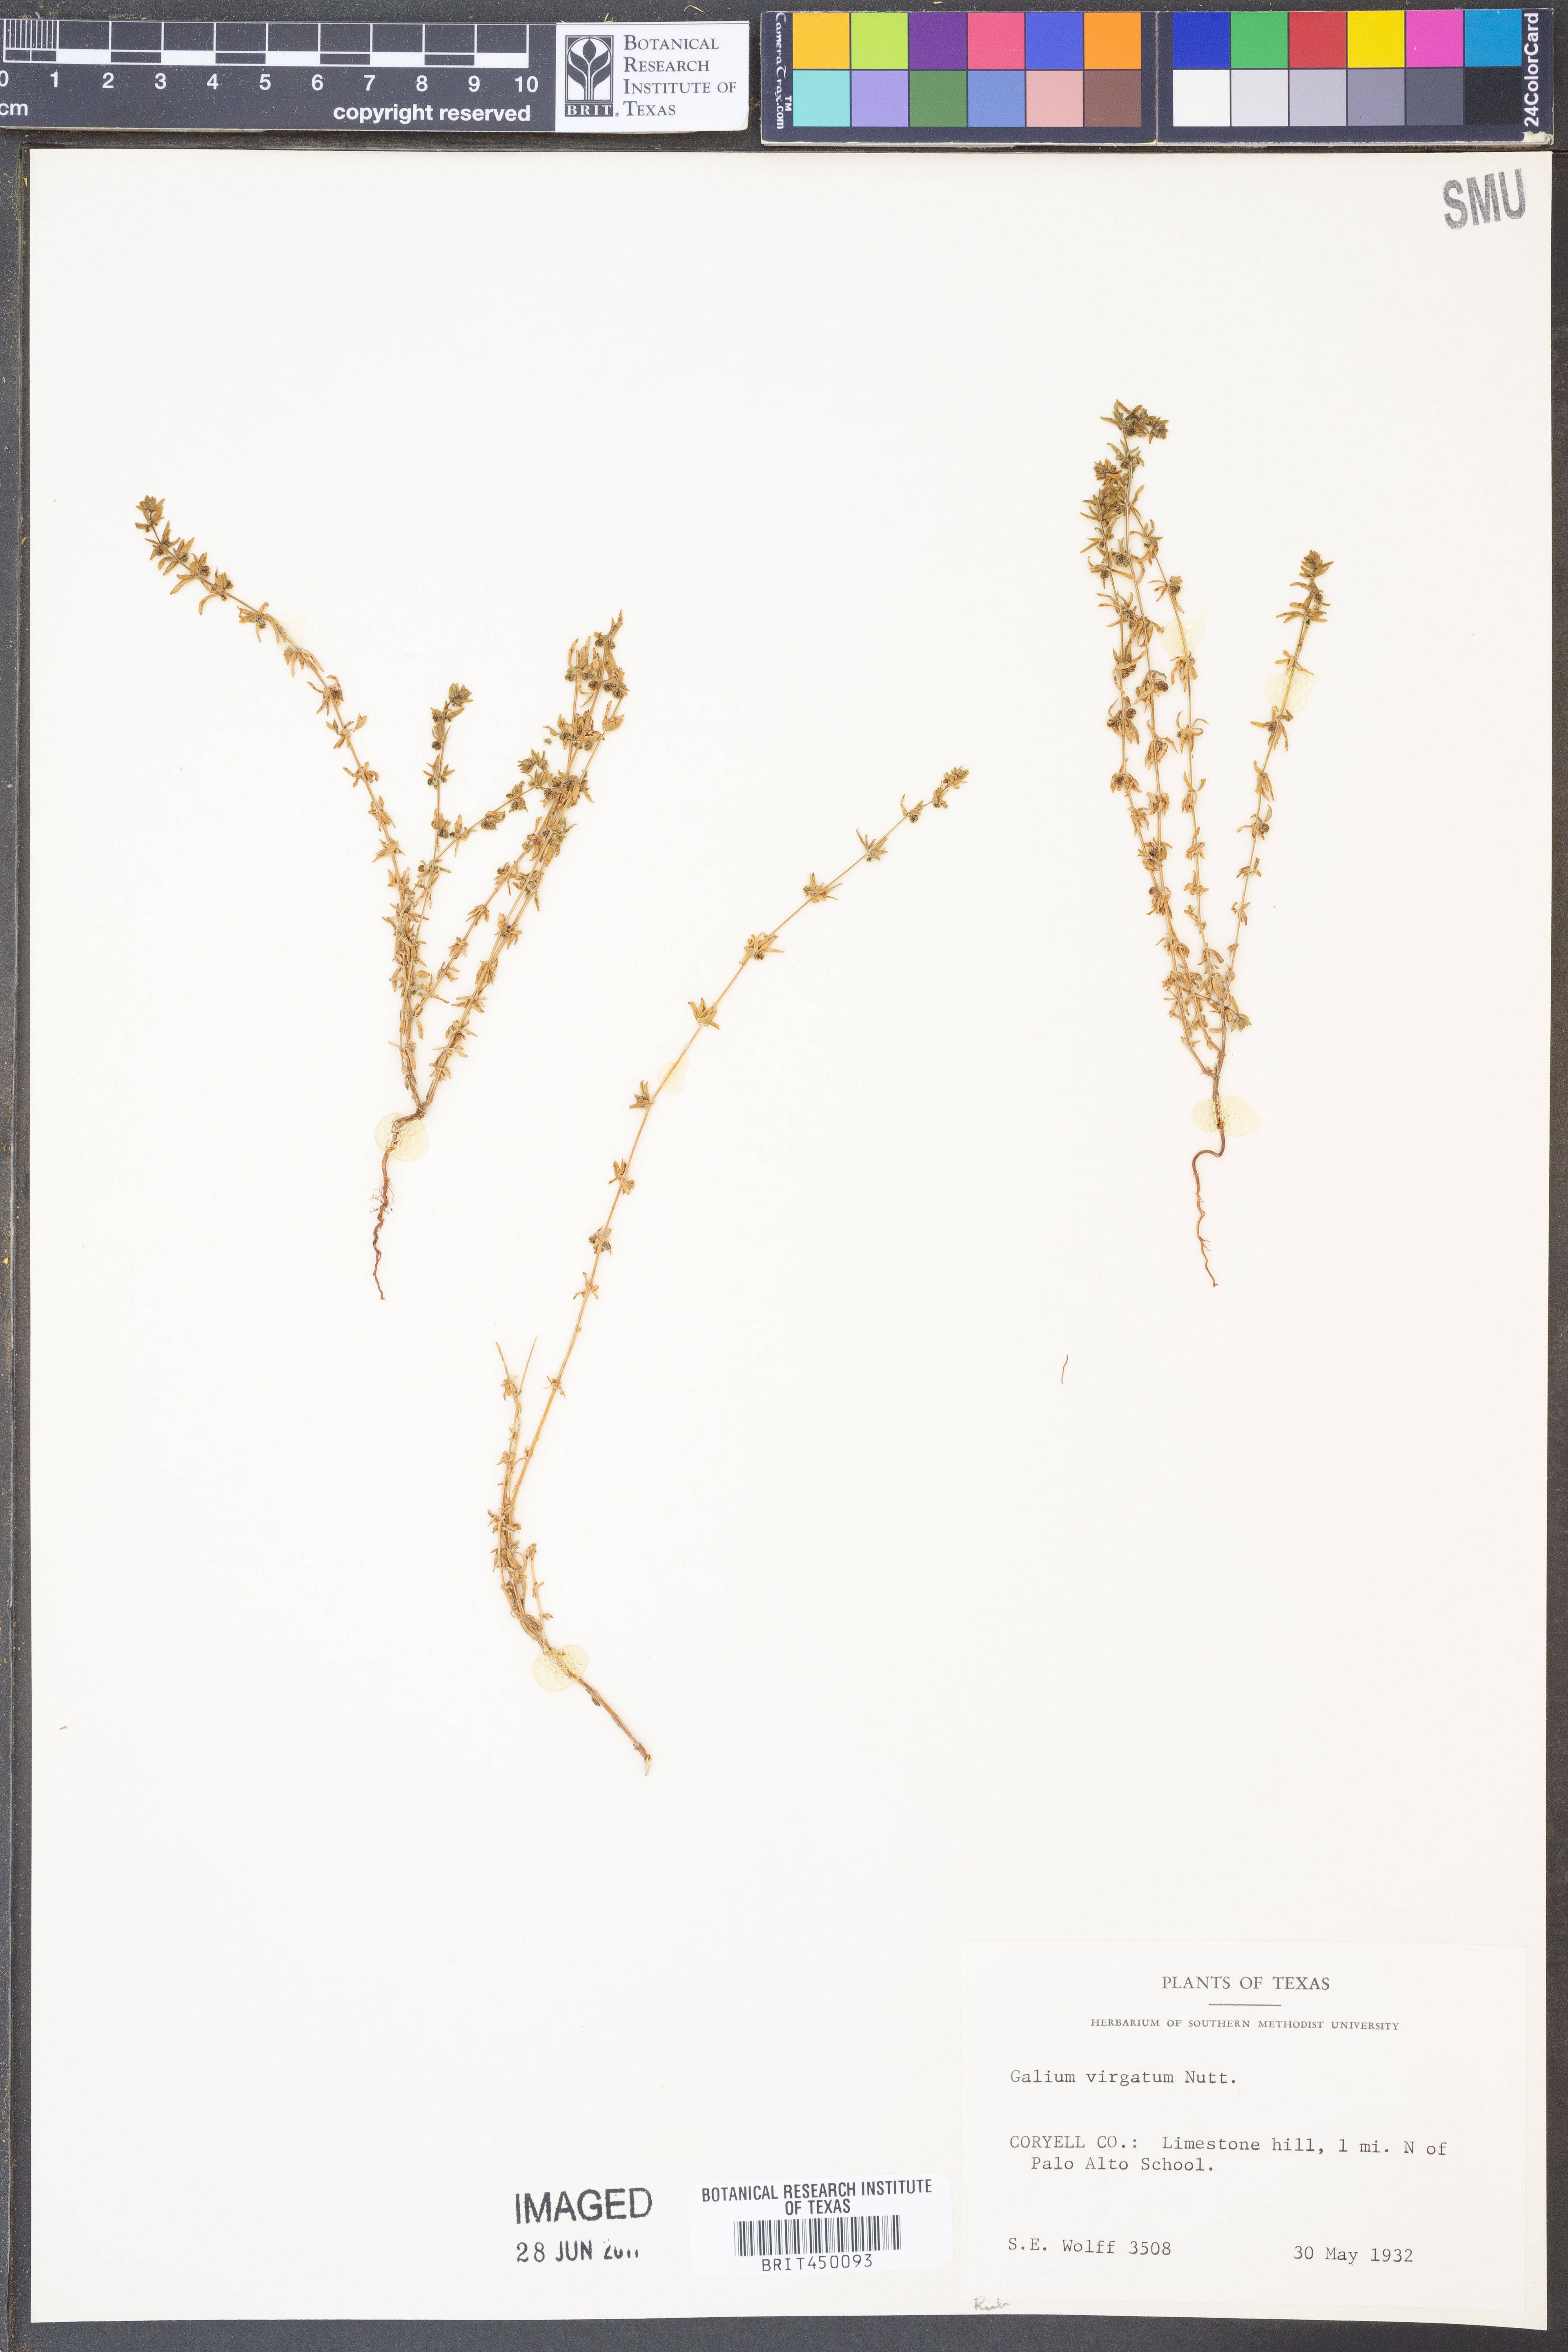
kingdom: Plantae
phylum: Tracheophyta
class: Magnoliopsida
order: Gentianales
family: Rubiaceae
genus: Galium
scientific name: Galium virgatum
